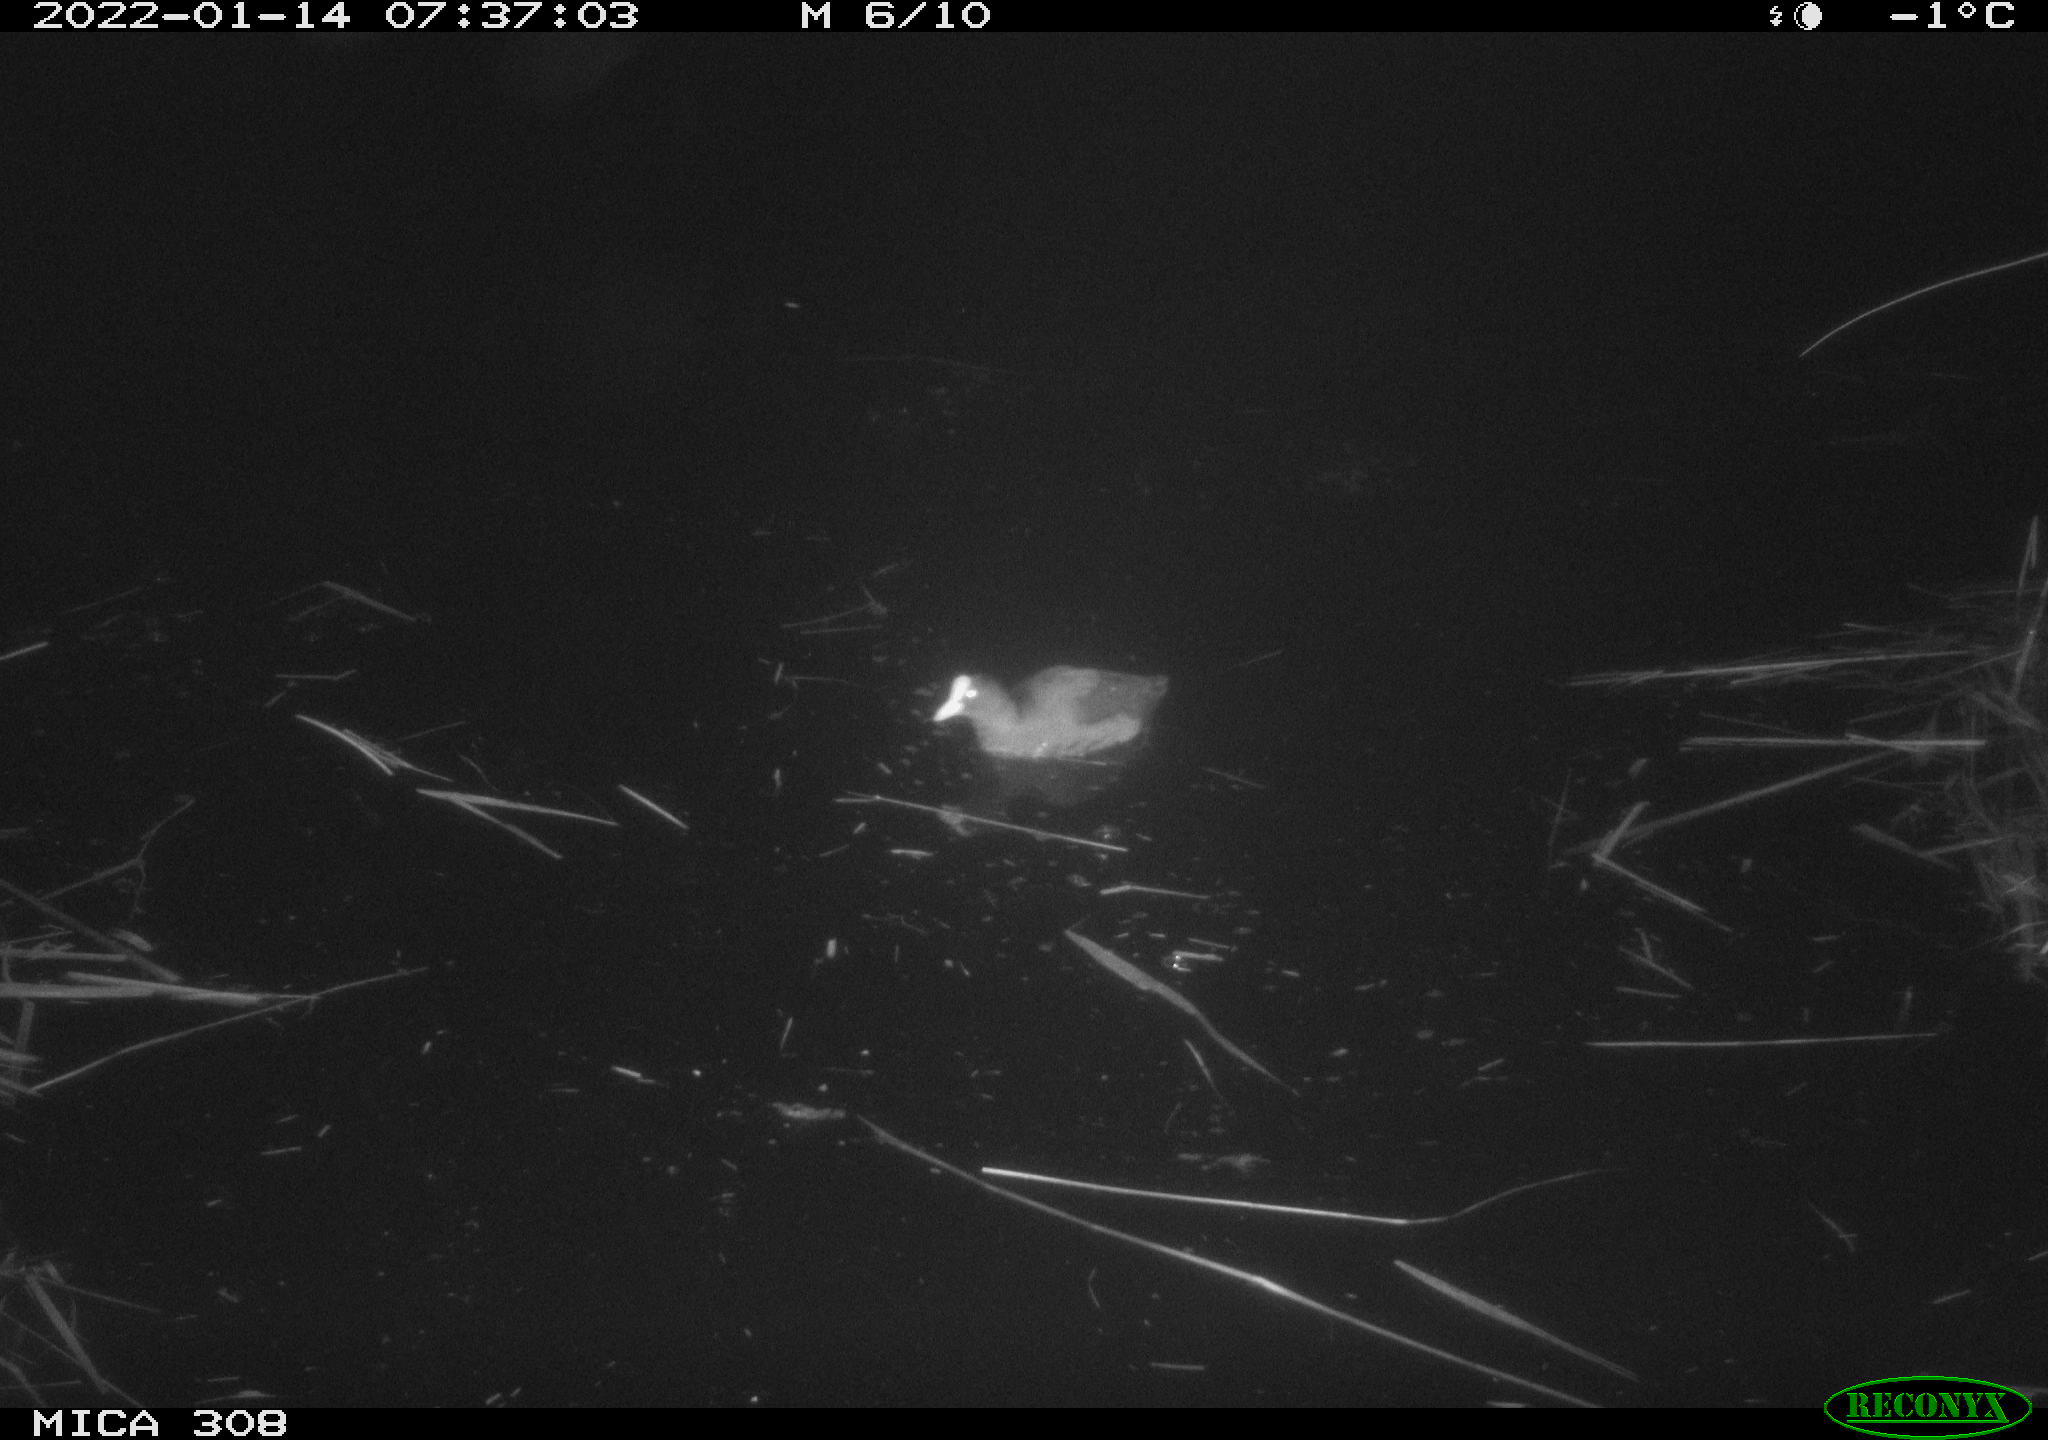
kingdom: Animalia
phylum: Chordata
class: Aves
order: Gruiformes
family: Rallidae
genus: Gallinula
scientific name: Gallinula chloropus
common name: Common moorhen
